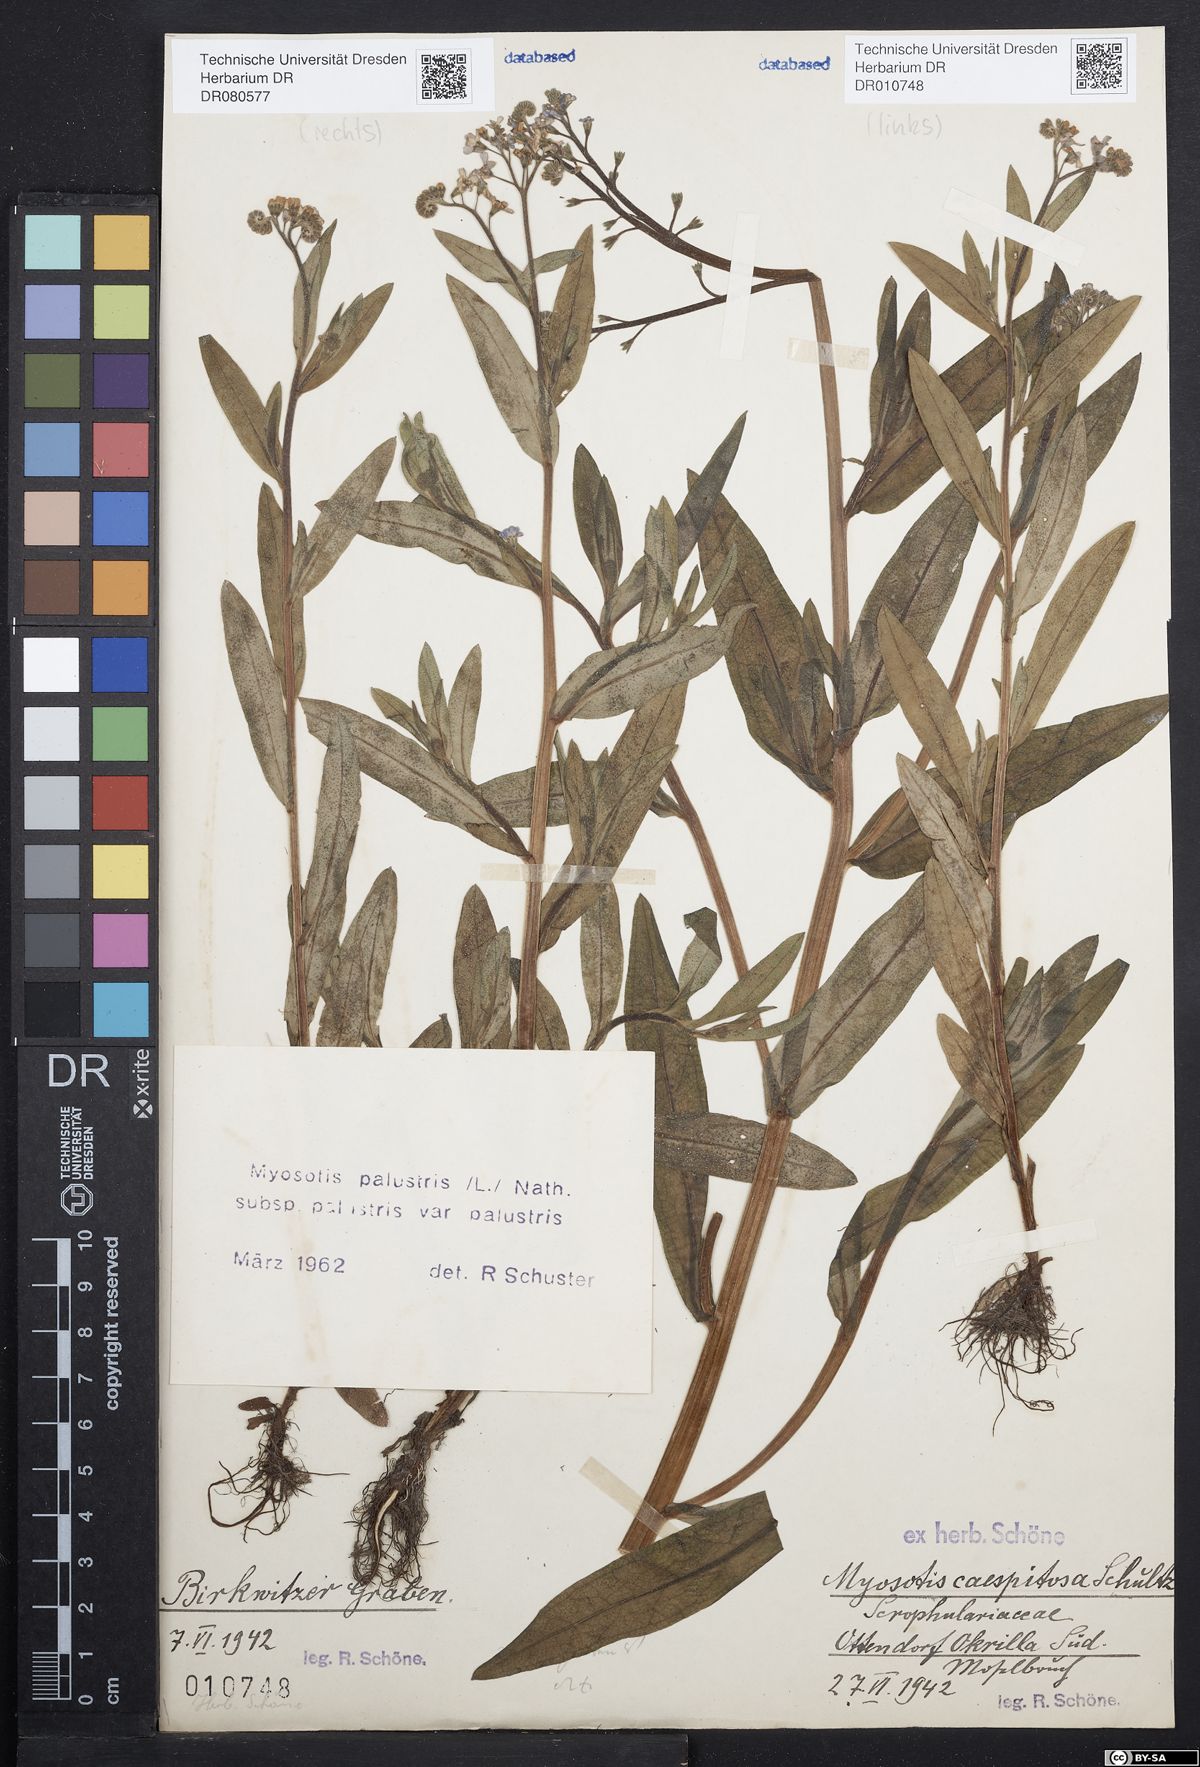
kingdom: Plantae
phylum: Tracheophyta
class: Magnoliopsida
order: Boraginales
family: Boraginaceae
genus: Myosotis
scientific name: Myosotis scorpioides
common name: Water forget-me-not
